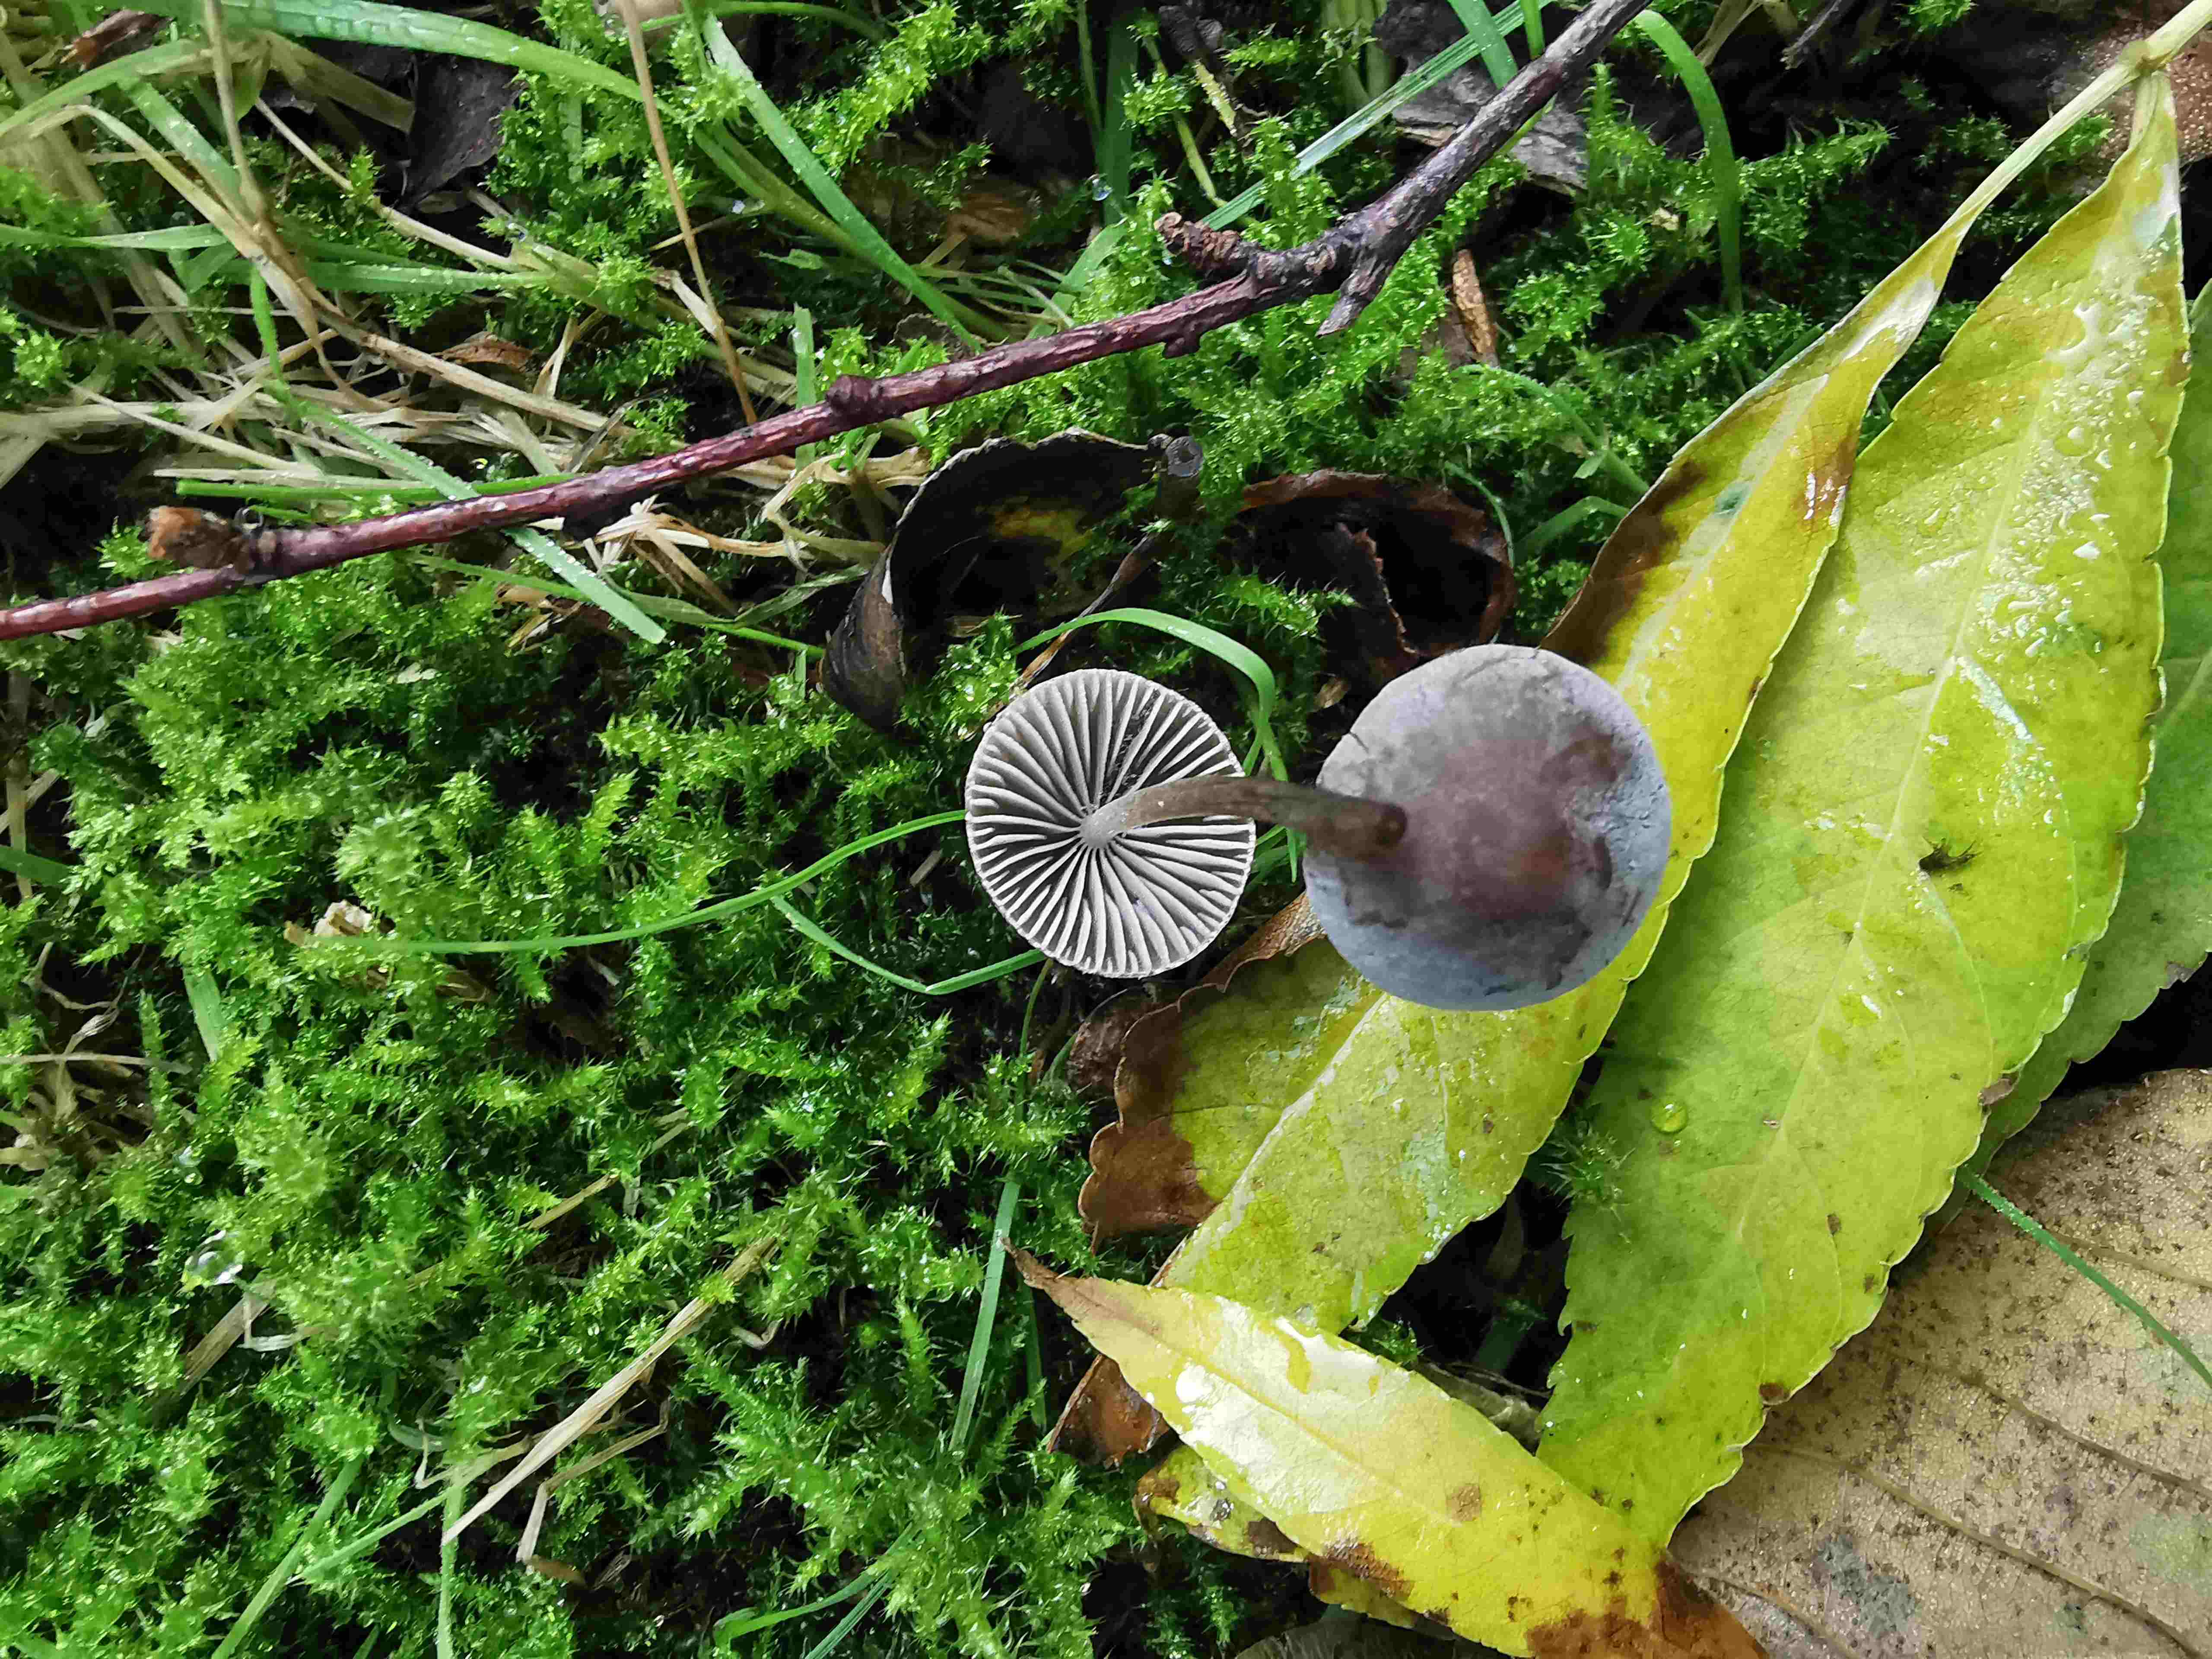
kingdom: Fungi
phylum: Basidiomycota
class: Agaricomycetes
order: Agaricales
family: Mycenaceae
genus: Mycena
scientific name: Mycena aetites
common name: plæne-huesvamp
